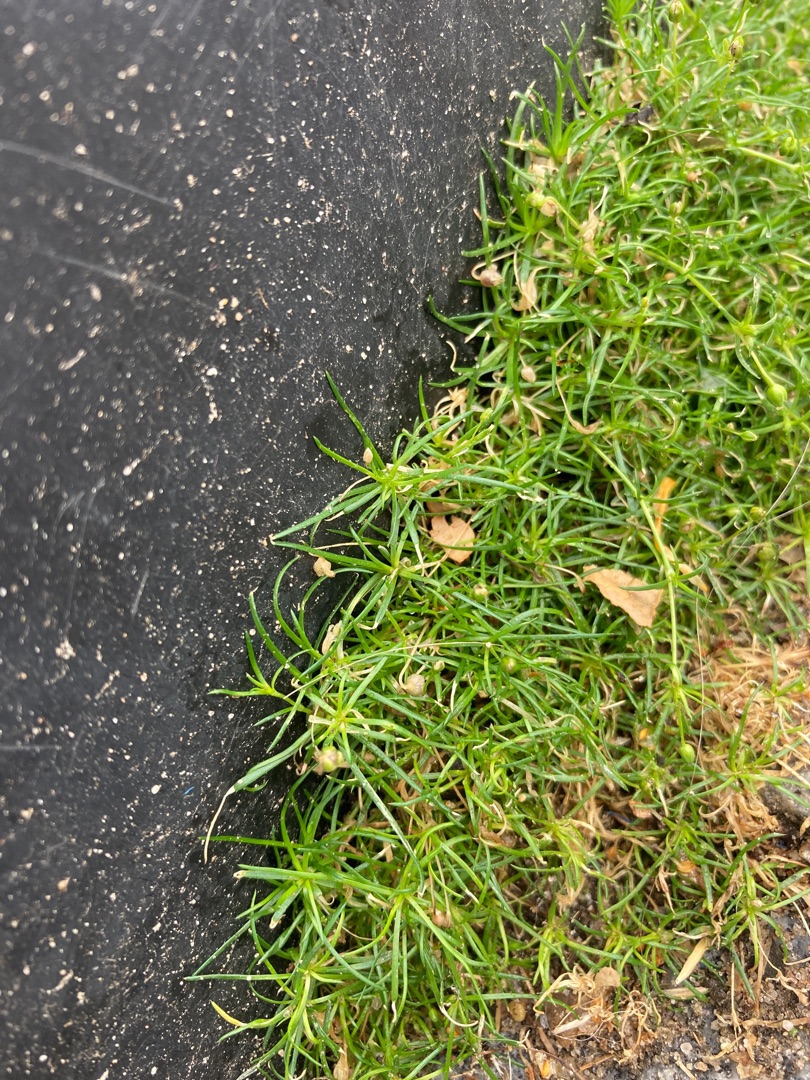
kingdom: Plantae
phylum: Tracheophyta
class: Magnoliopsida
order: Caryophyllales
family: Caryophyllaceae
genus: Sagina
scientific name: Sagina procumbens
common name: Almindelig firling
